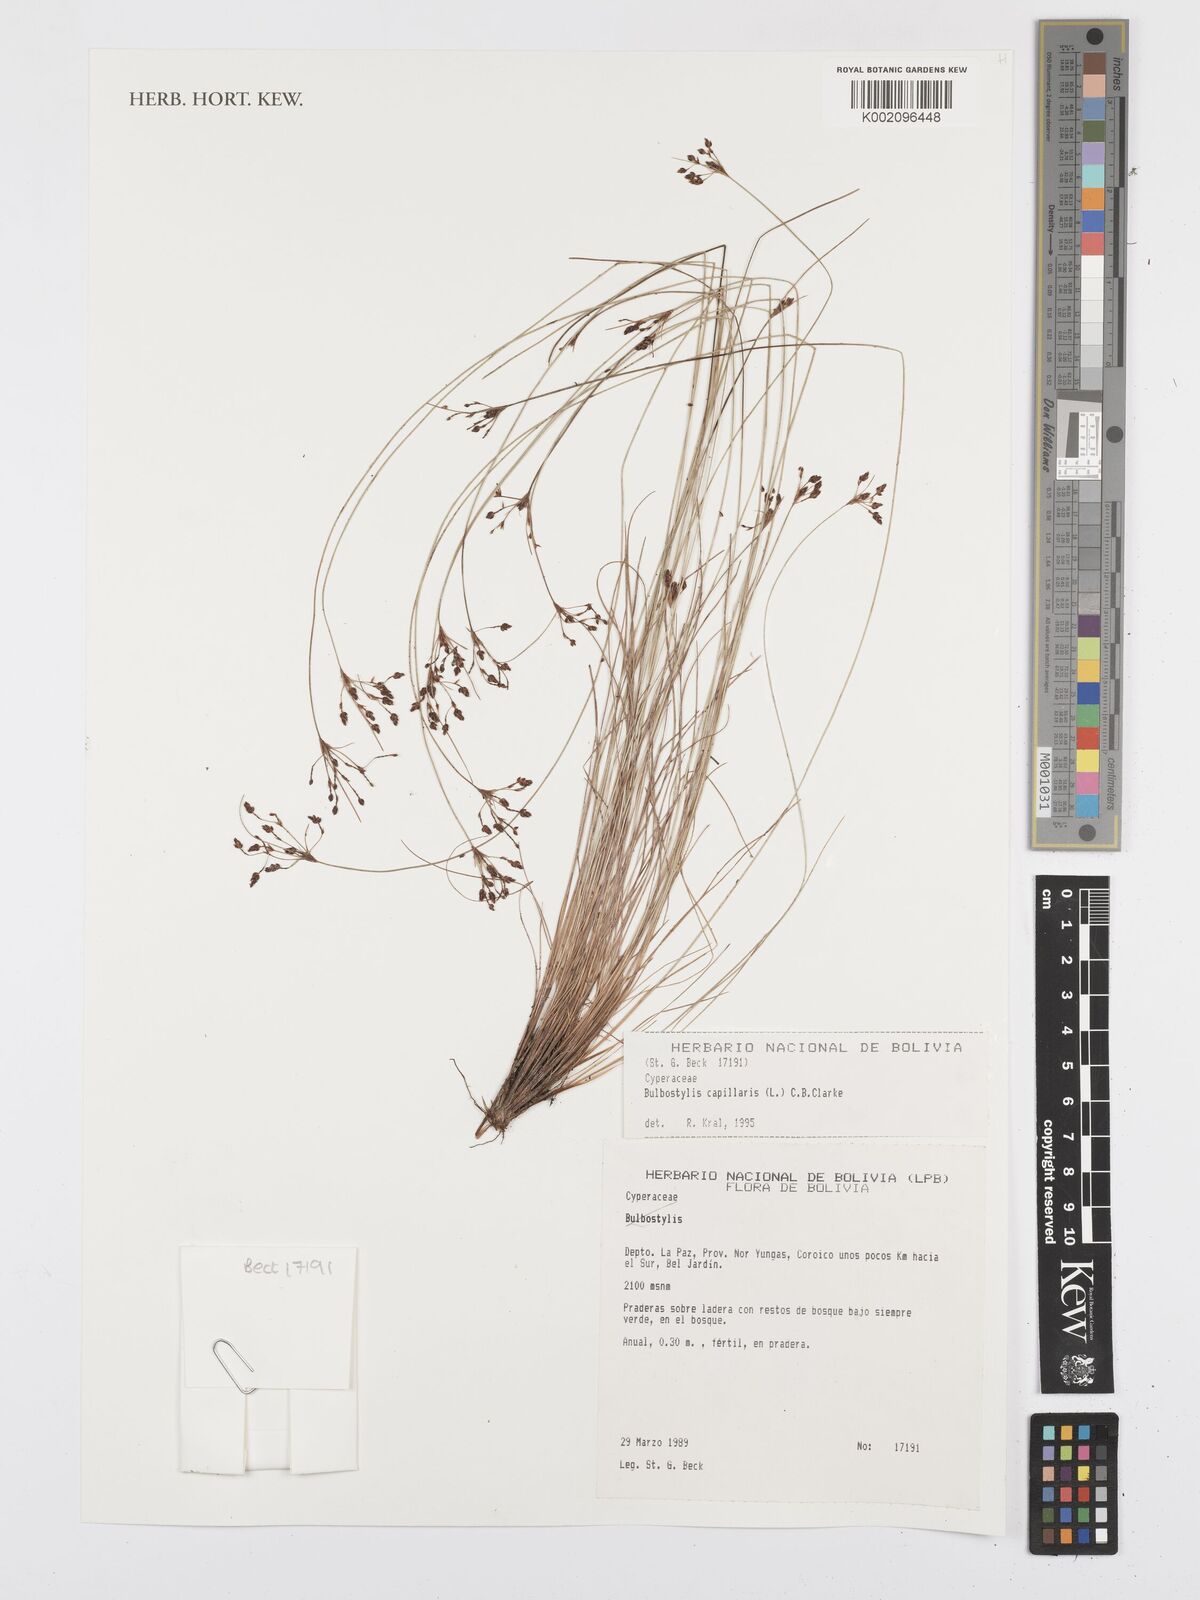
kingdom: Plantae
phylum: Tracheophyta
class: Liliopsida
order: Poales
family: Cyperaceae
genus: Bulbostylis
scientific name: Bulbostylis capillaris
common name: Densetuft hairsedge
